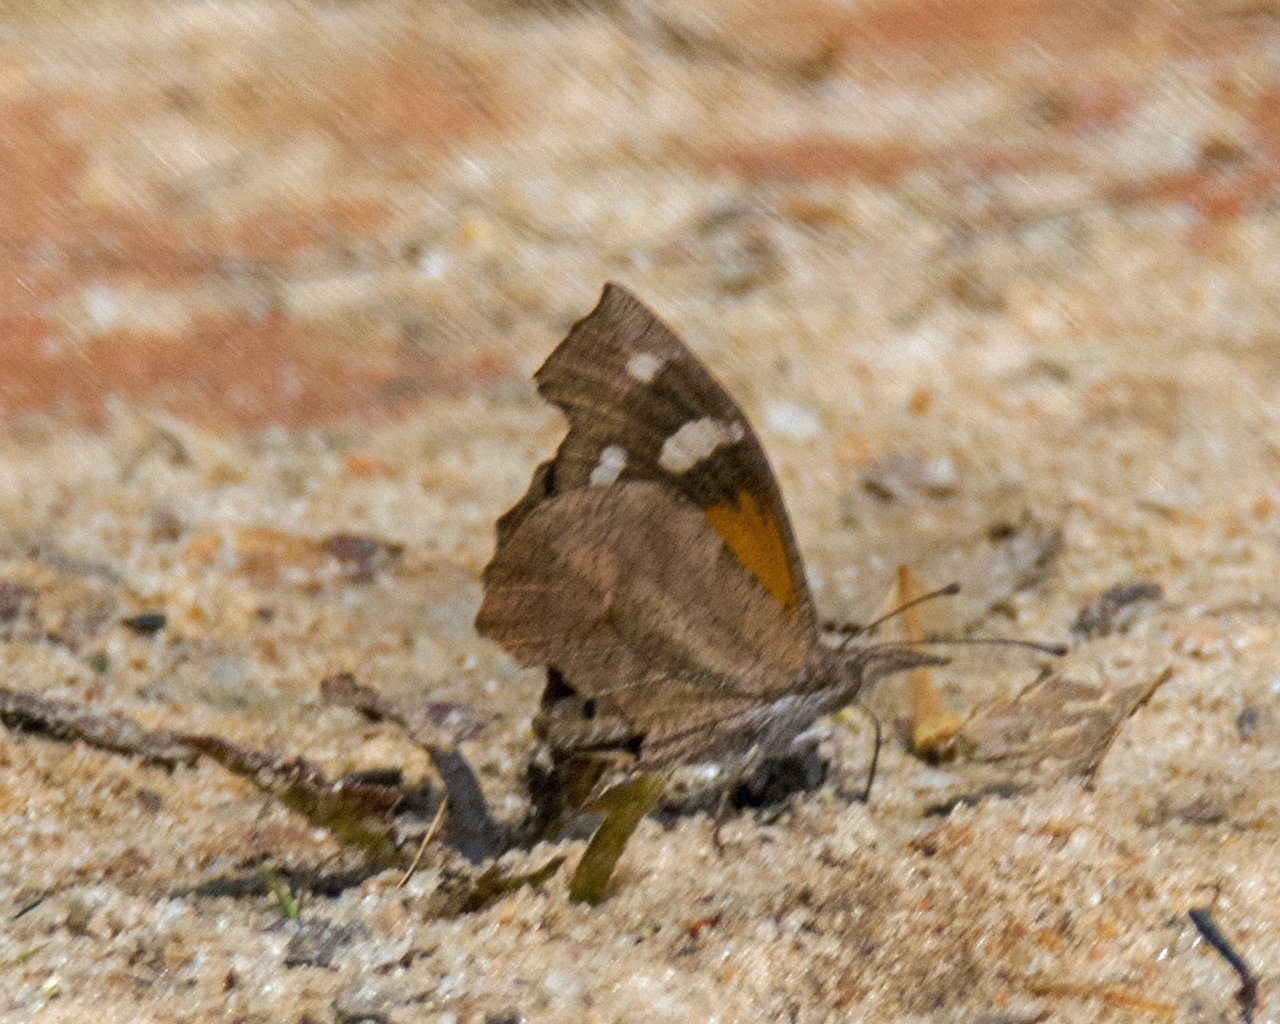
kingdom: Animalia
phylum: Arthropoda
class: Insecta
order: Lepidoptera
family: Nymphalidae
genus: Libytheana
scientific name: Libytheana carinenta
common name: American Snout
